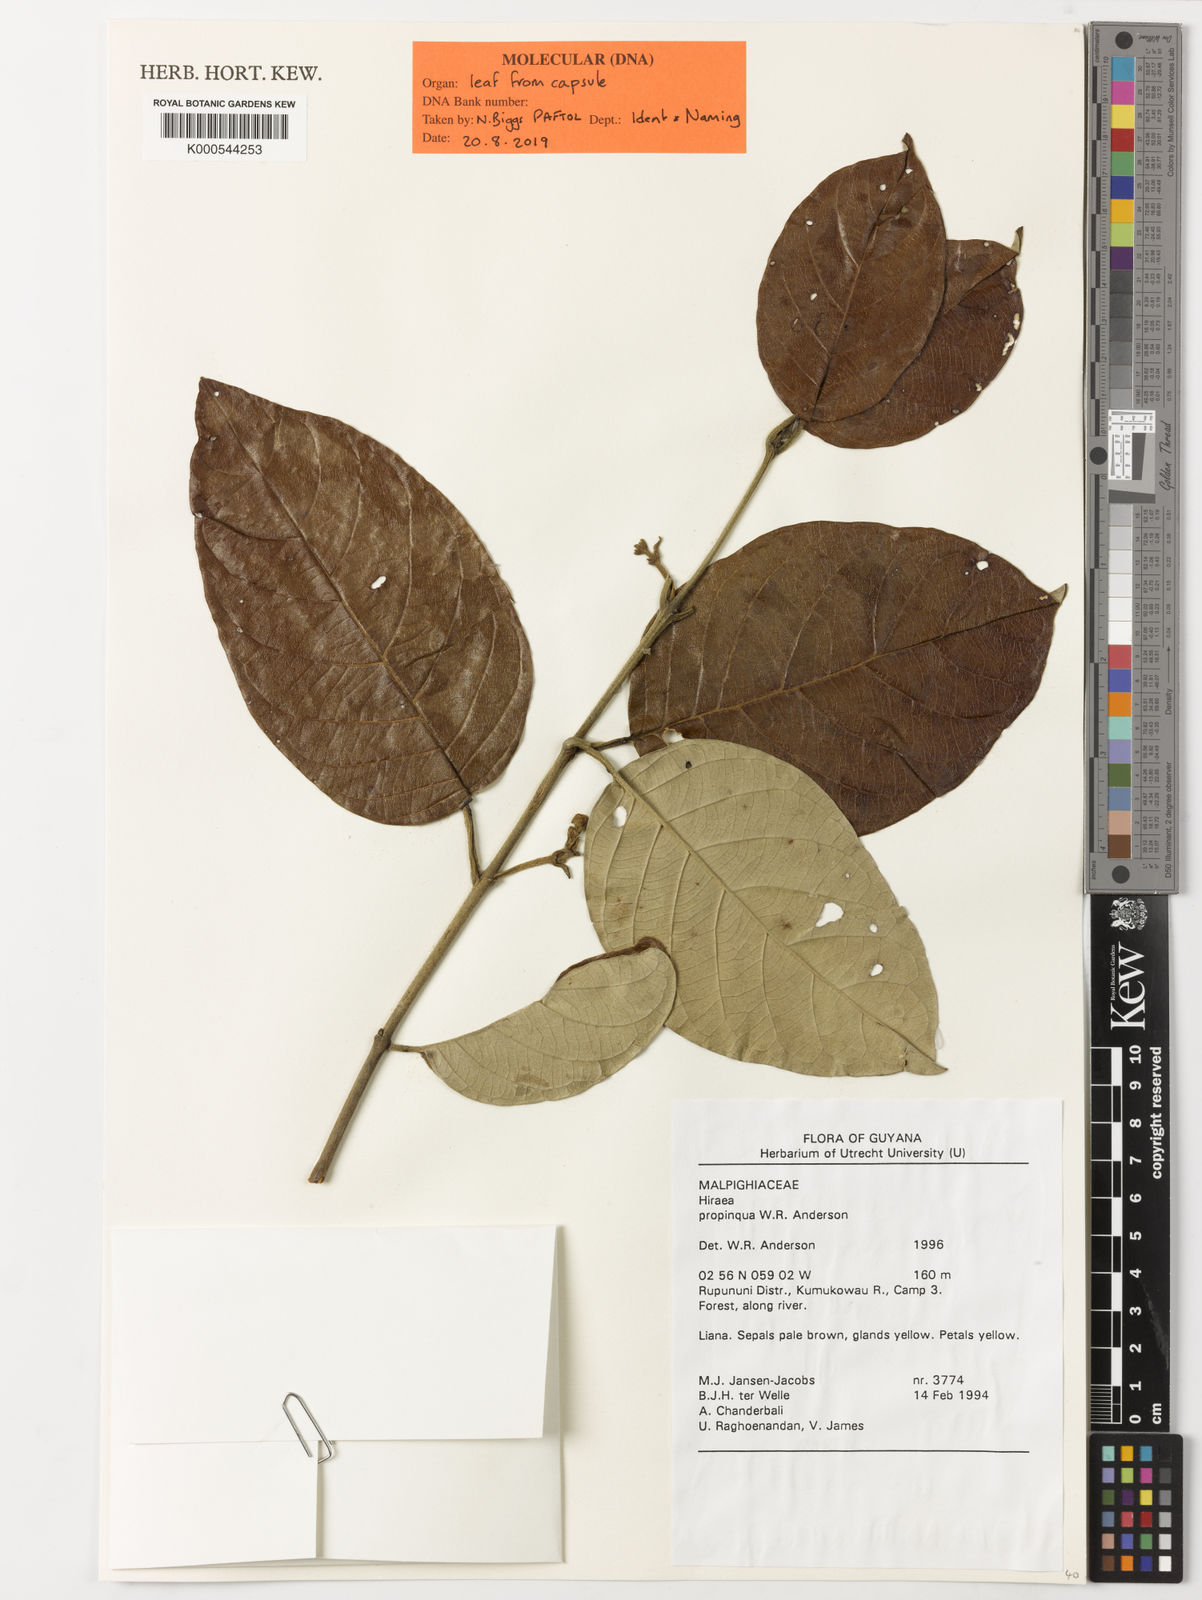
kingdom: Plantae
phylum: Tracheophyta
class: Magnoliopsida
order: Malpighiales
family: Malpighiaceae
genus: Excentradenia
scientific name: Excentradenia propinqua
